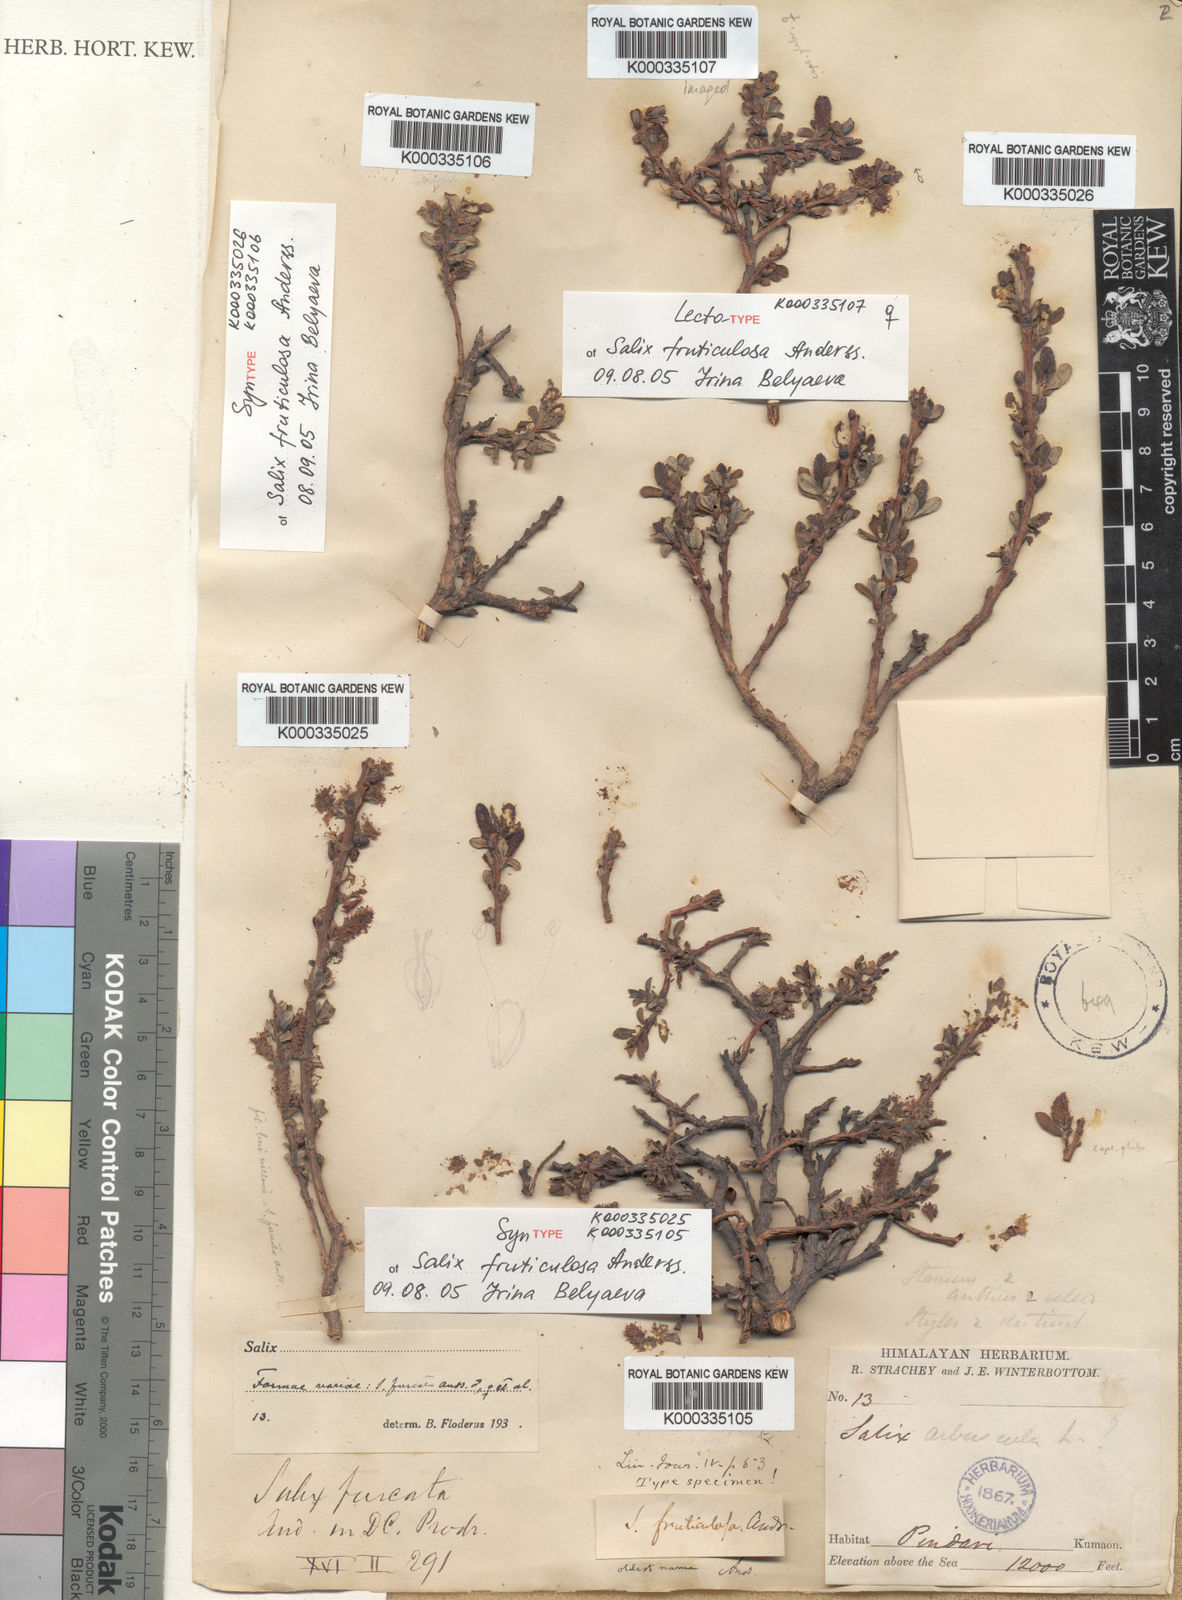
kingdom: Plantae
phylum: Tracheophyta
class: Magnoliopsida
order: Malpighiales
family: Salicaceae
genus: Salix
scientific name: Salix fruticulosa
